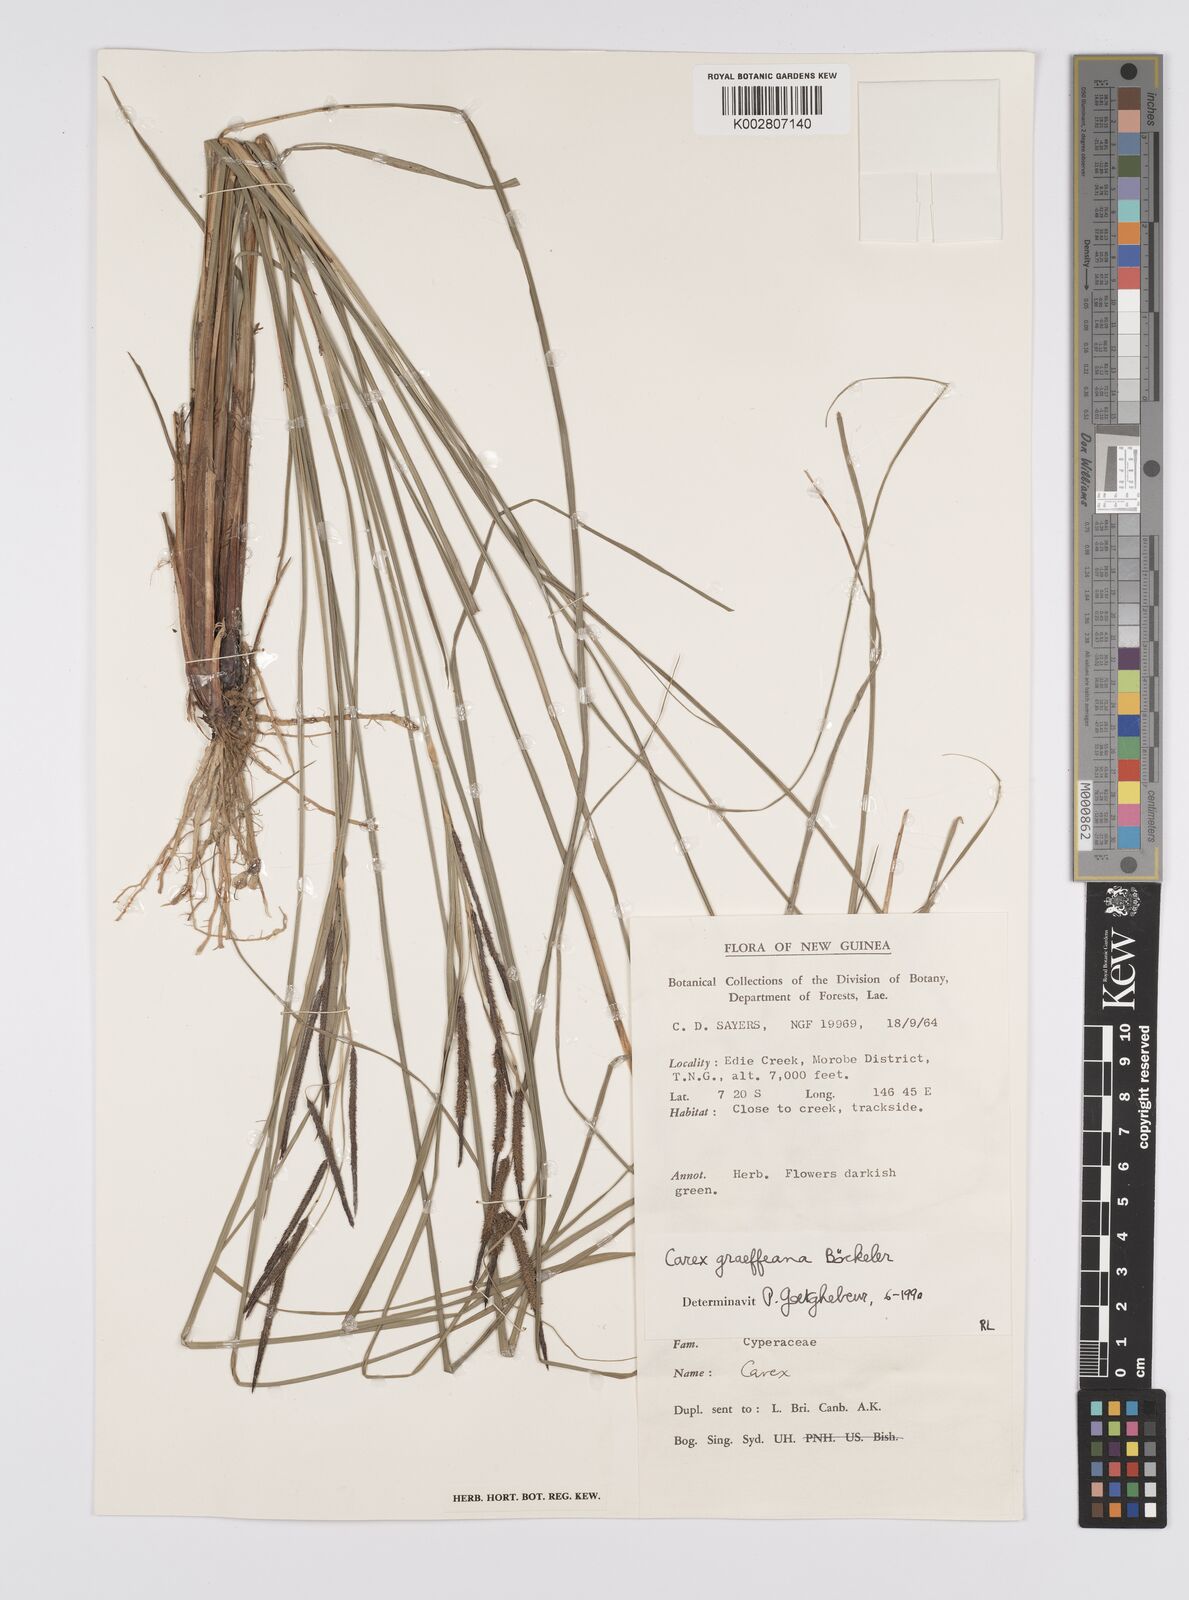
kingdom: Plantae
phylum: Tracheophyta
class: Liliopsida
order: Poales
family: Cyperaceae
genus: Carex
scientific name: Carex graeffeana
